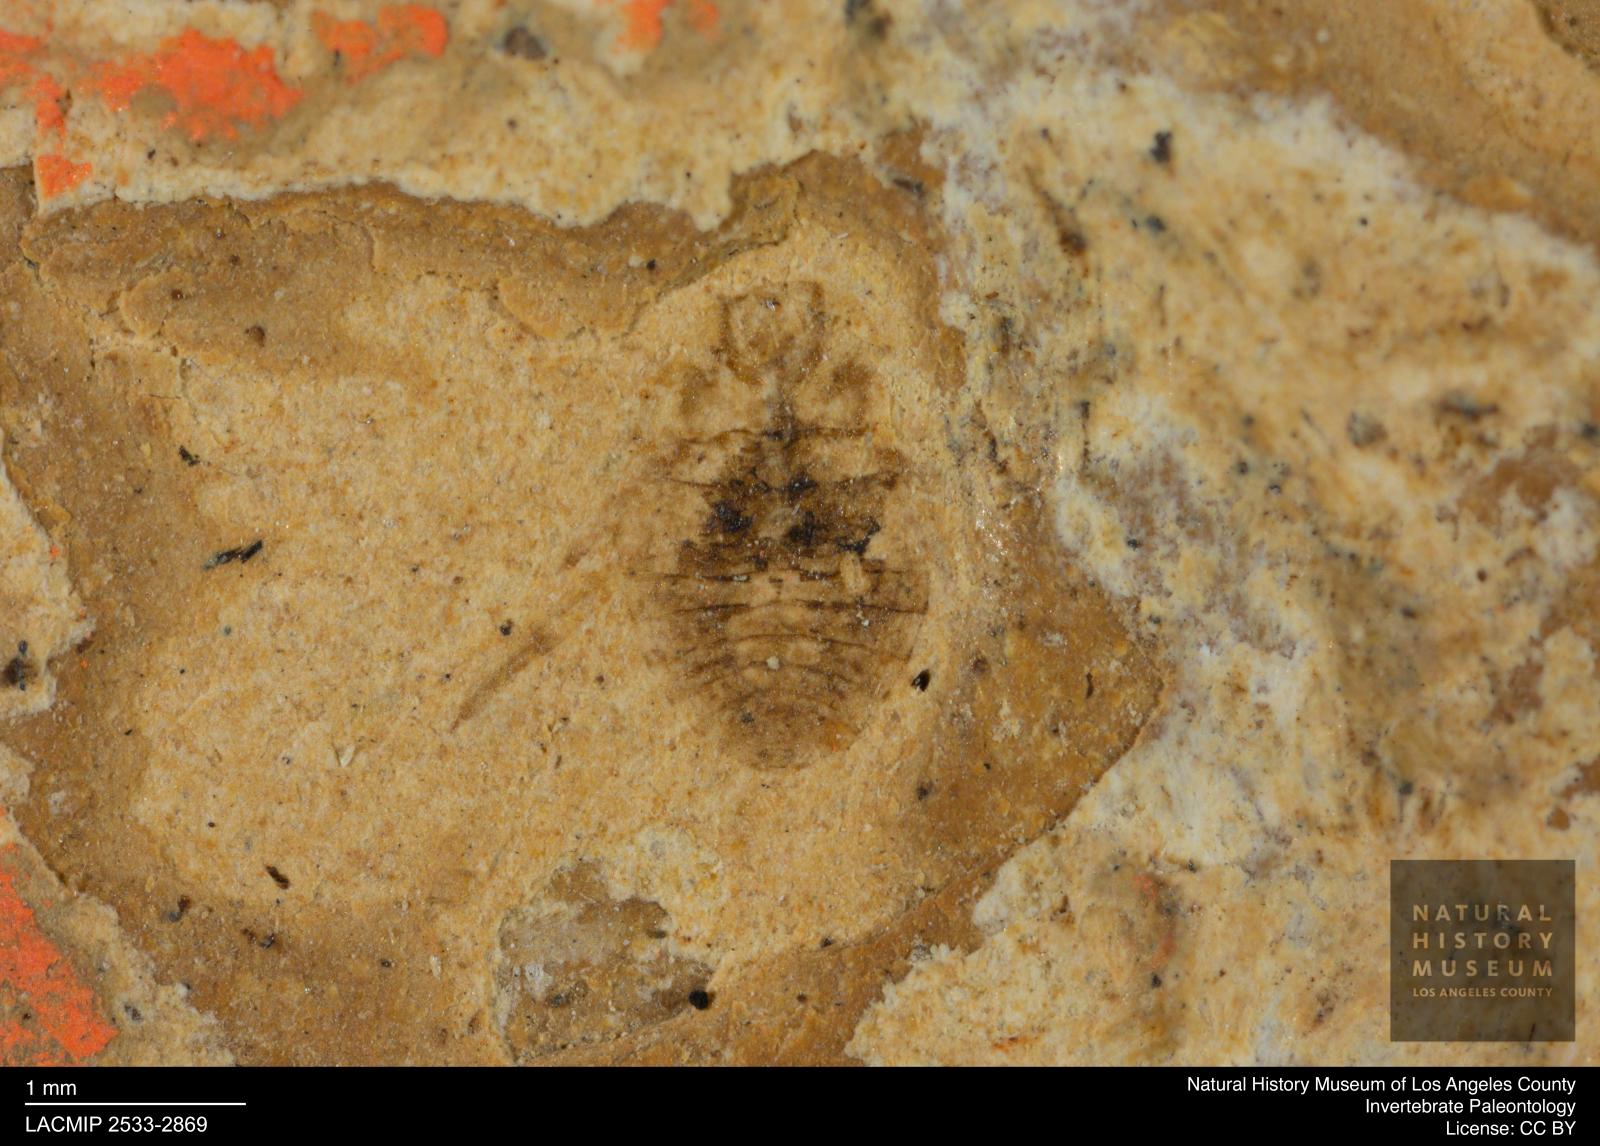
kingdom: Animalia
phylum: Arthropoda
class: Insecta
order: Hemiptera
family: Naucoridae
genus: Naucoris
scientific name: Naucoris rottensis
